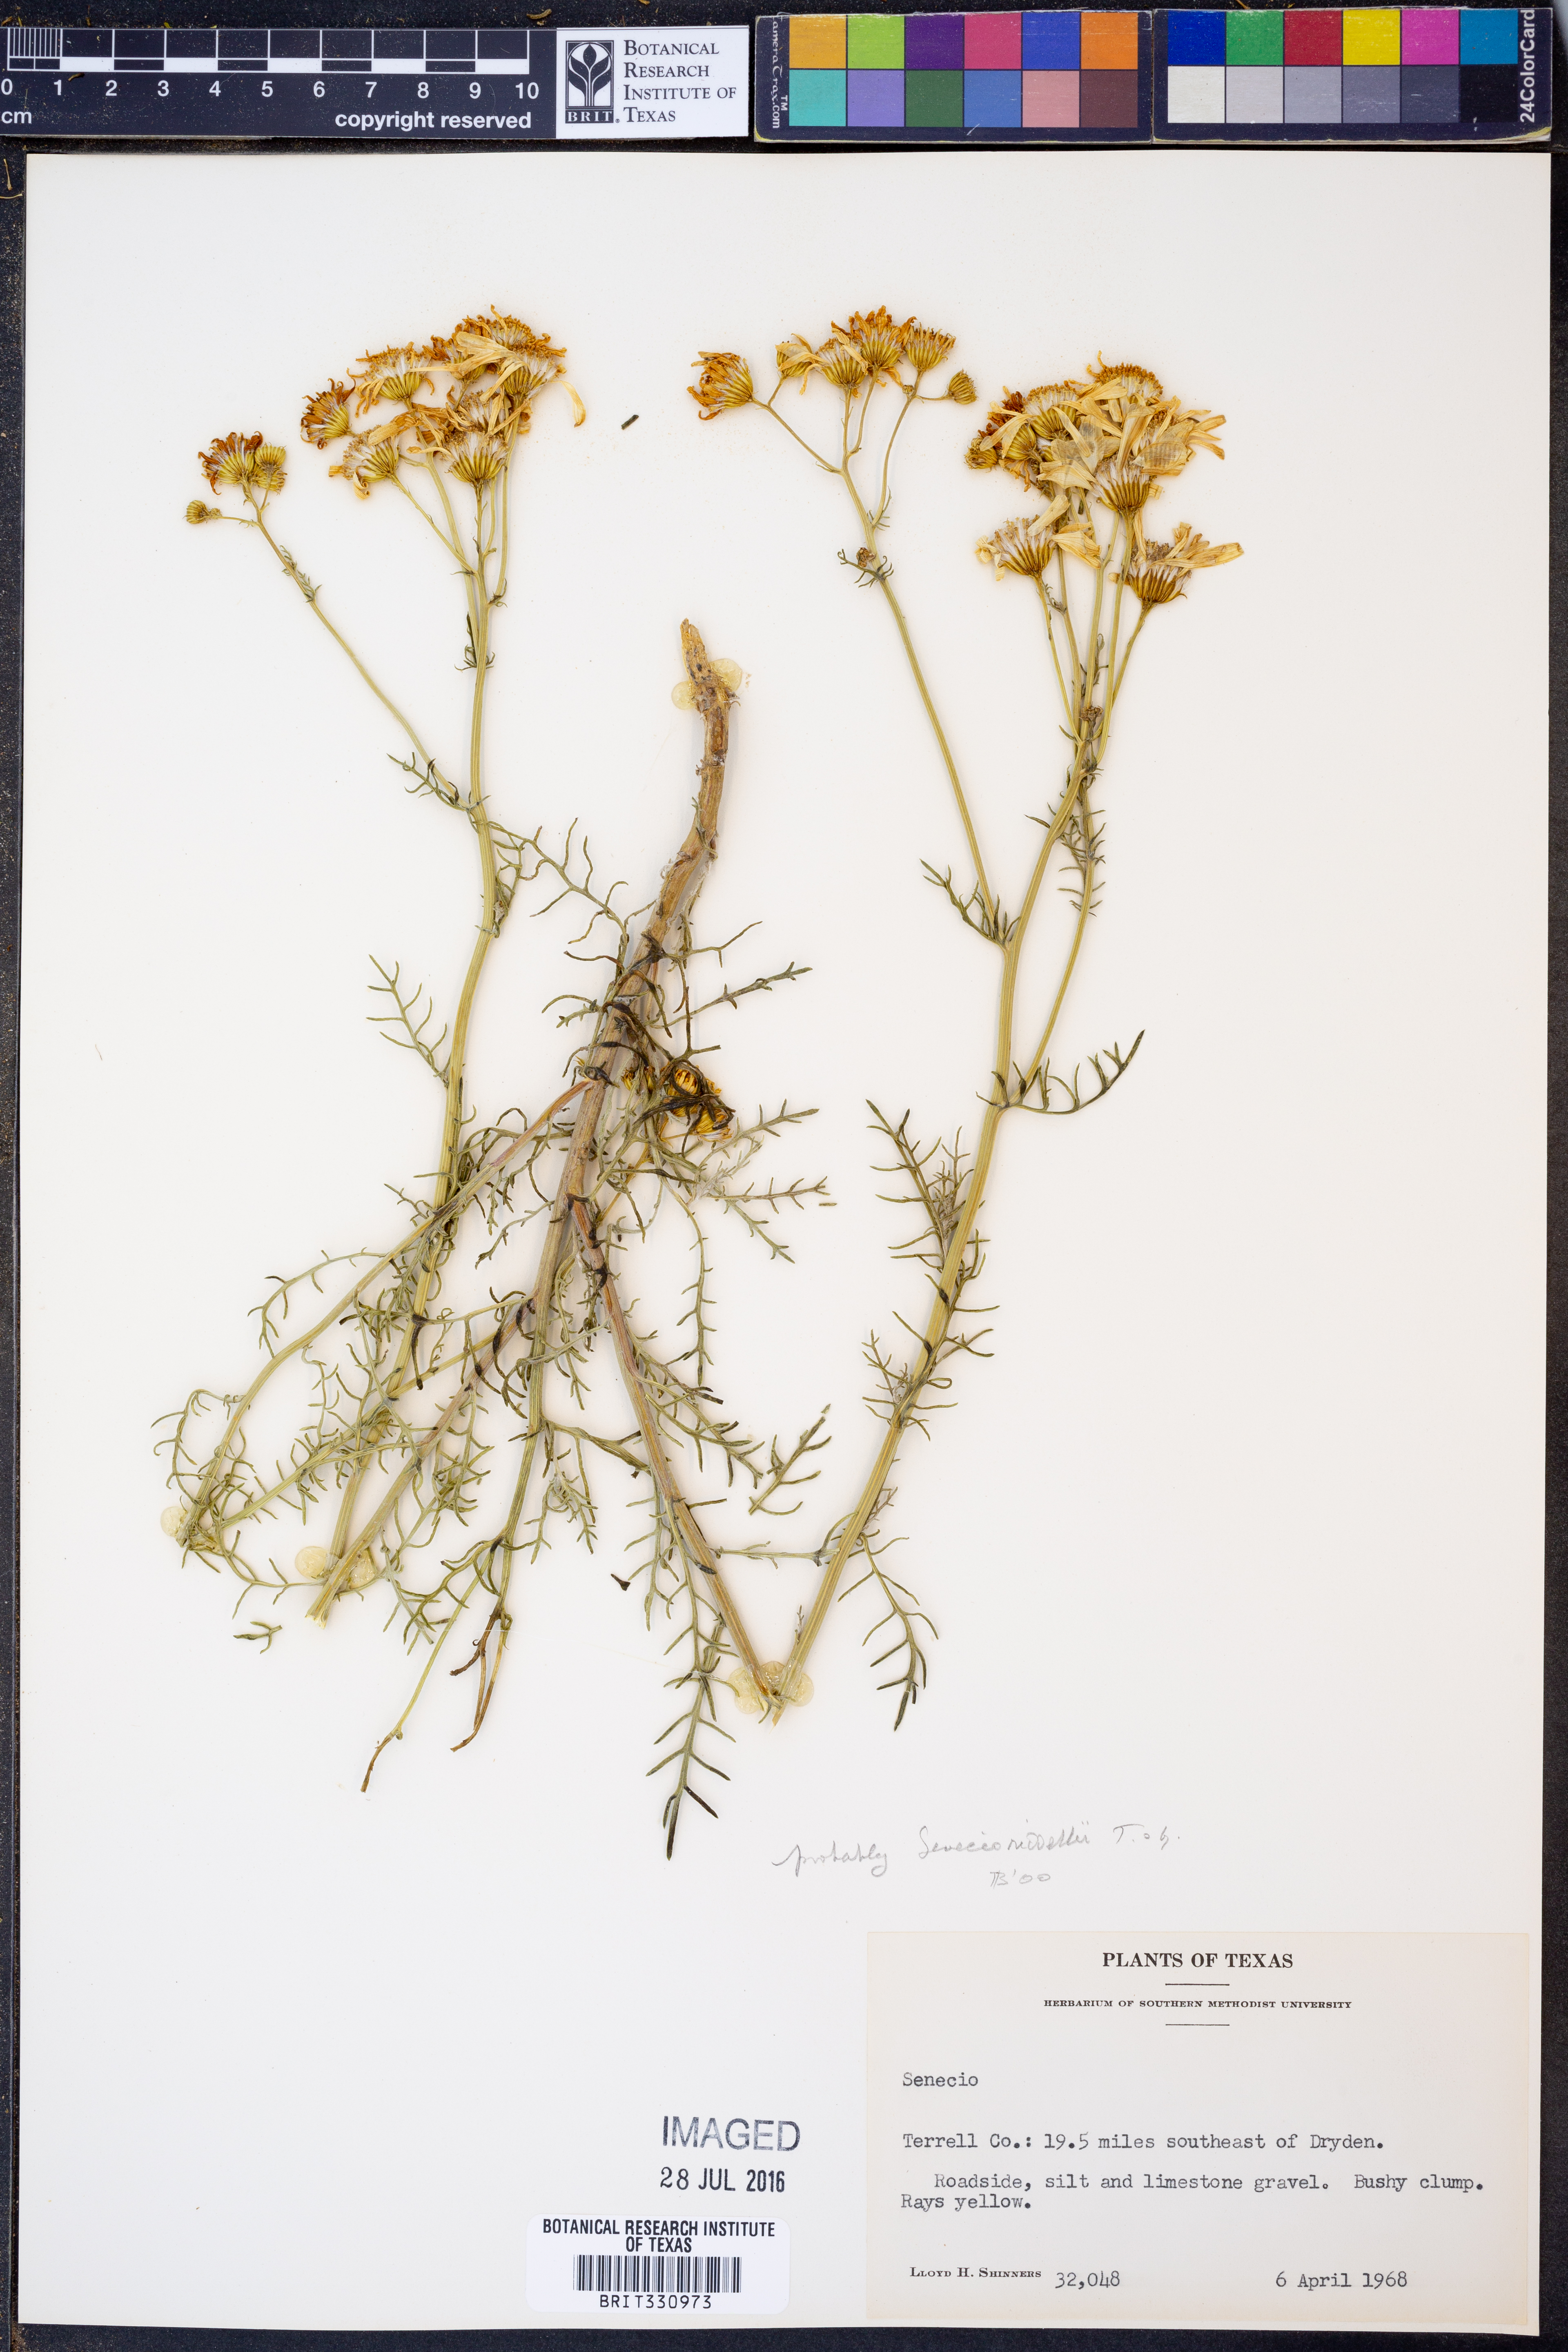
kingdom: Plantae
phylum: Tracheophyta
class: Magnoliopsida
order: Asterales
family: Asteraceae
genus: Senecio
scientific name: Senecio riddellii
